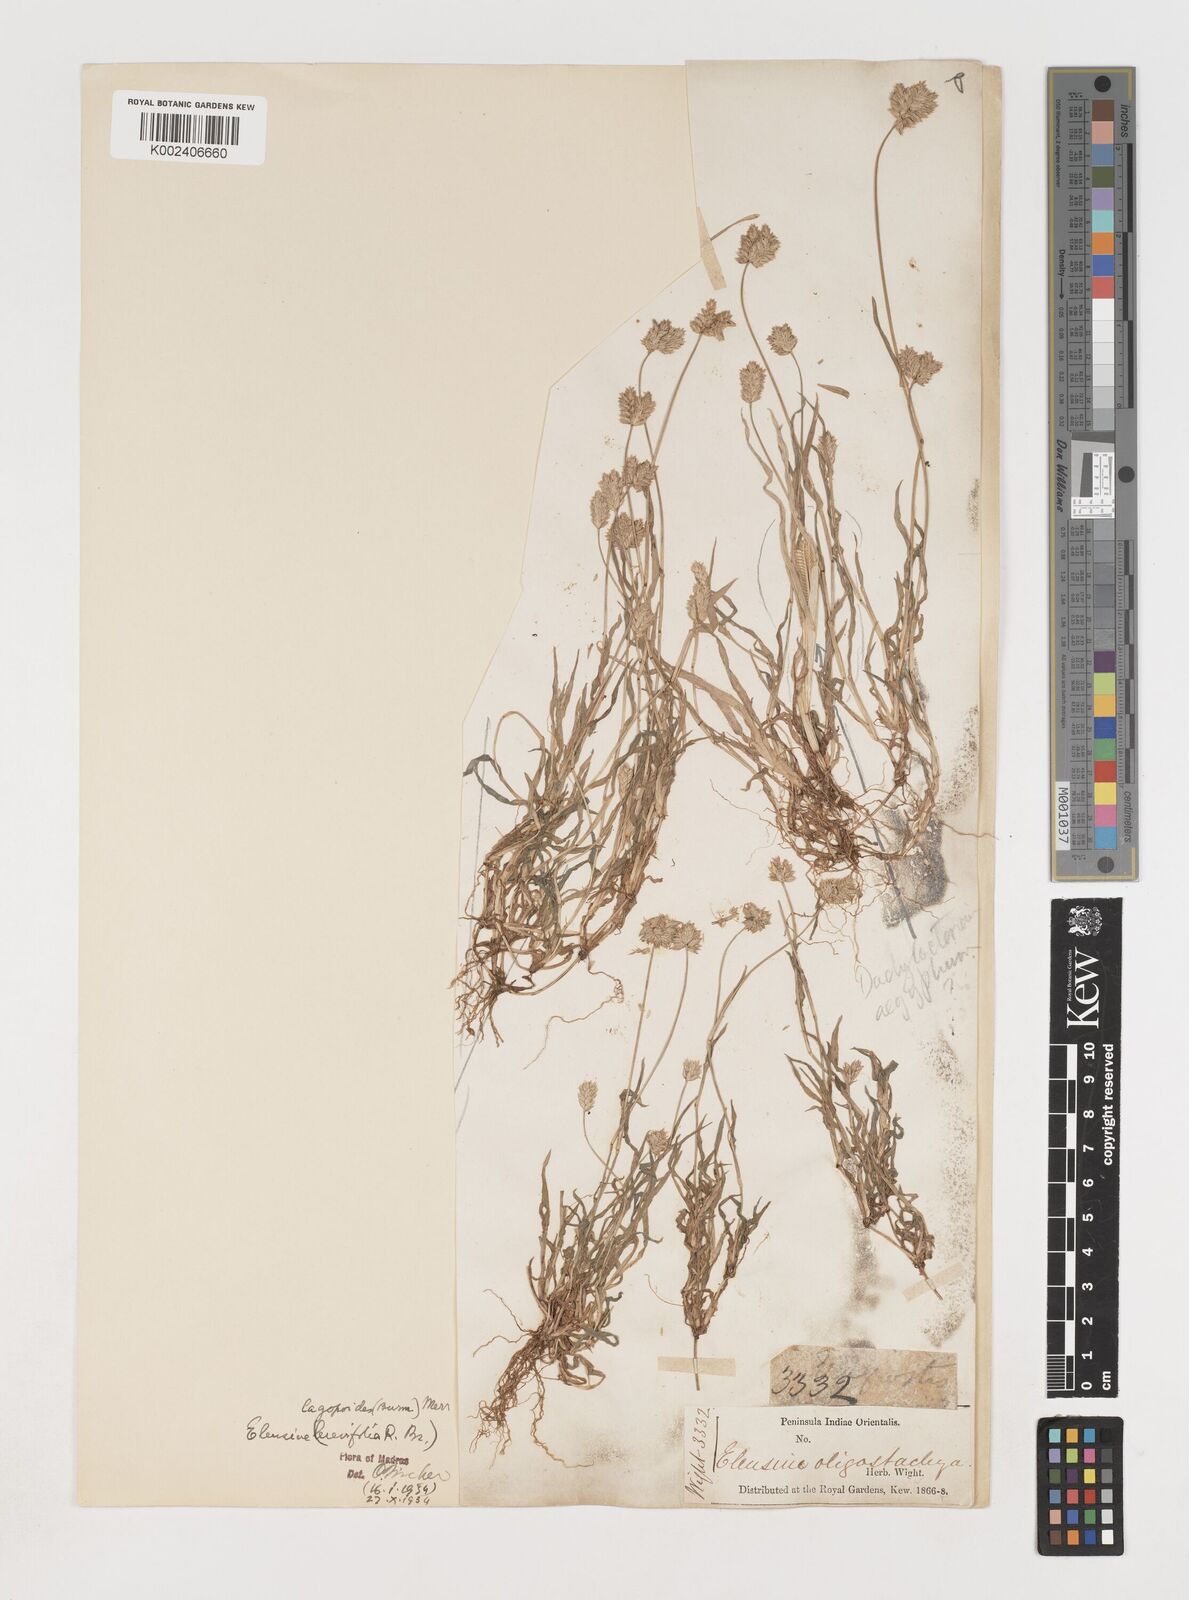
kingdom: Plantae
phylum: Tracheophyta
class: Liliopsida
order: Poales
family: Poaceae
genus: Coelachyrum
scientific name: Coelachyrum lagopoides
